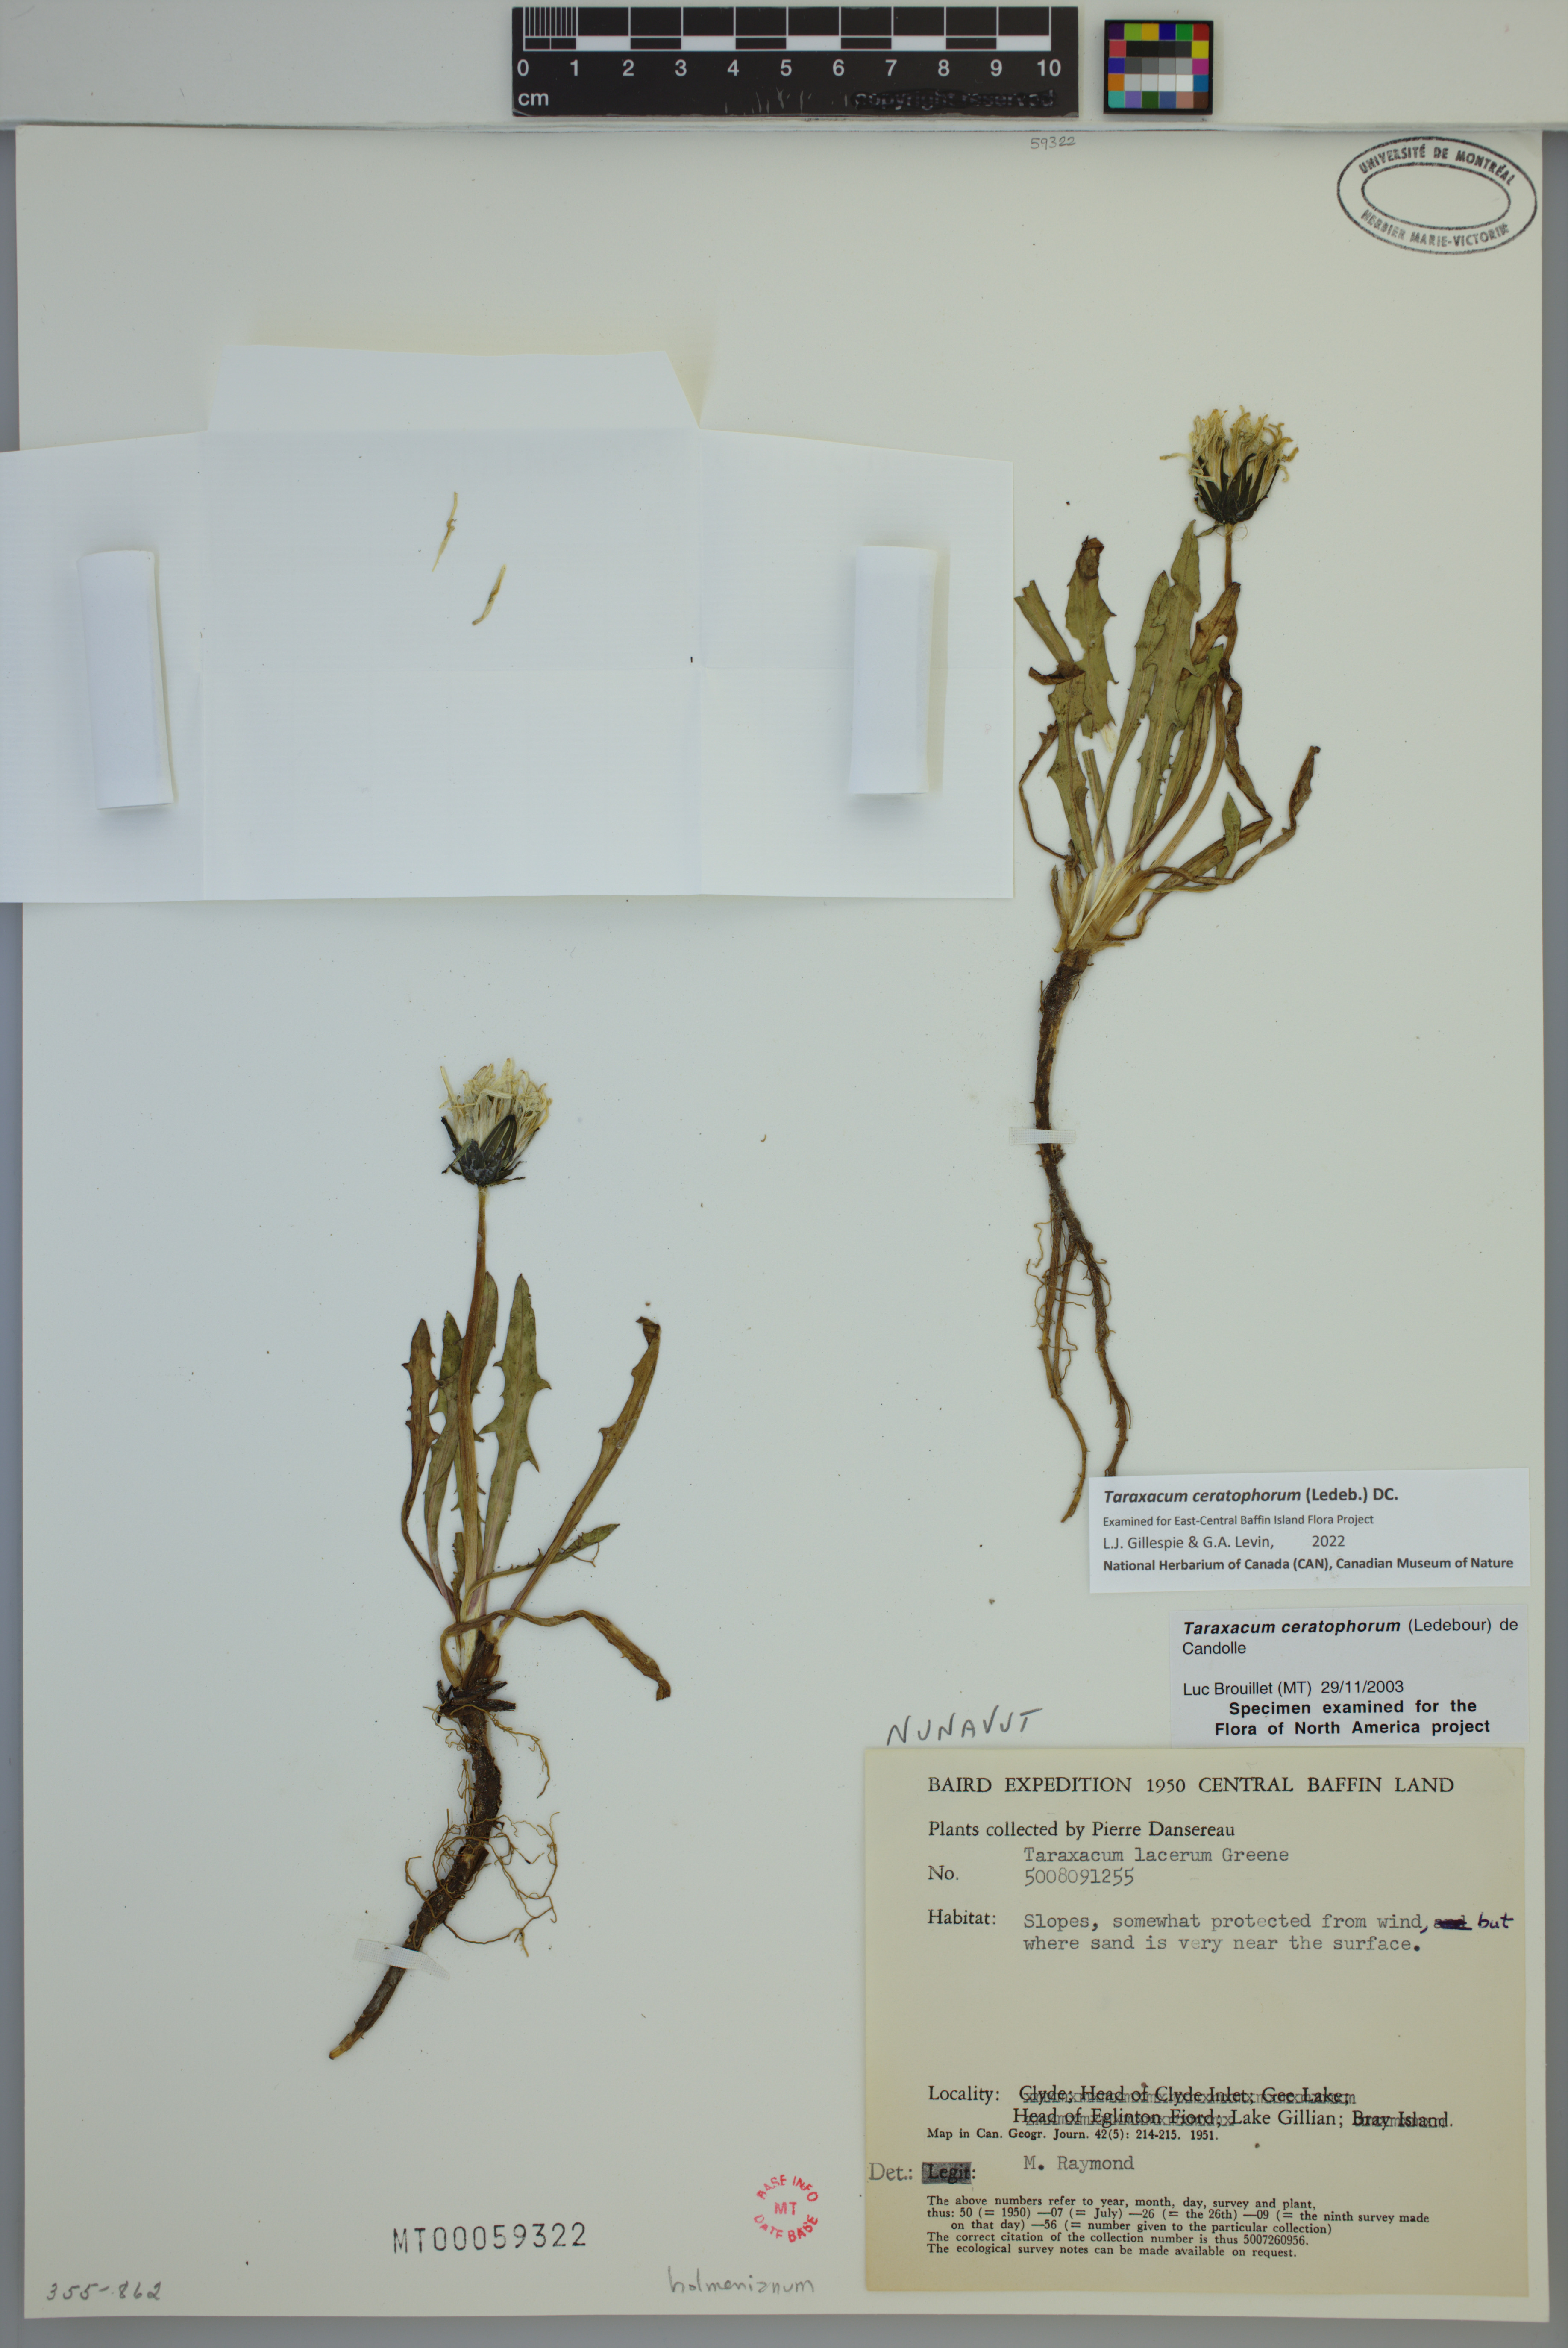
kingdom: Plantae
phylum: Tracheophyta
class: Magnoliopsida
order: Asterales
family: Asteraceae
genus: Taraxacum
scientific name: Taraxacum ceratophorum
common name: Horn-bearing dandelion
